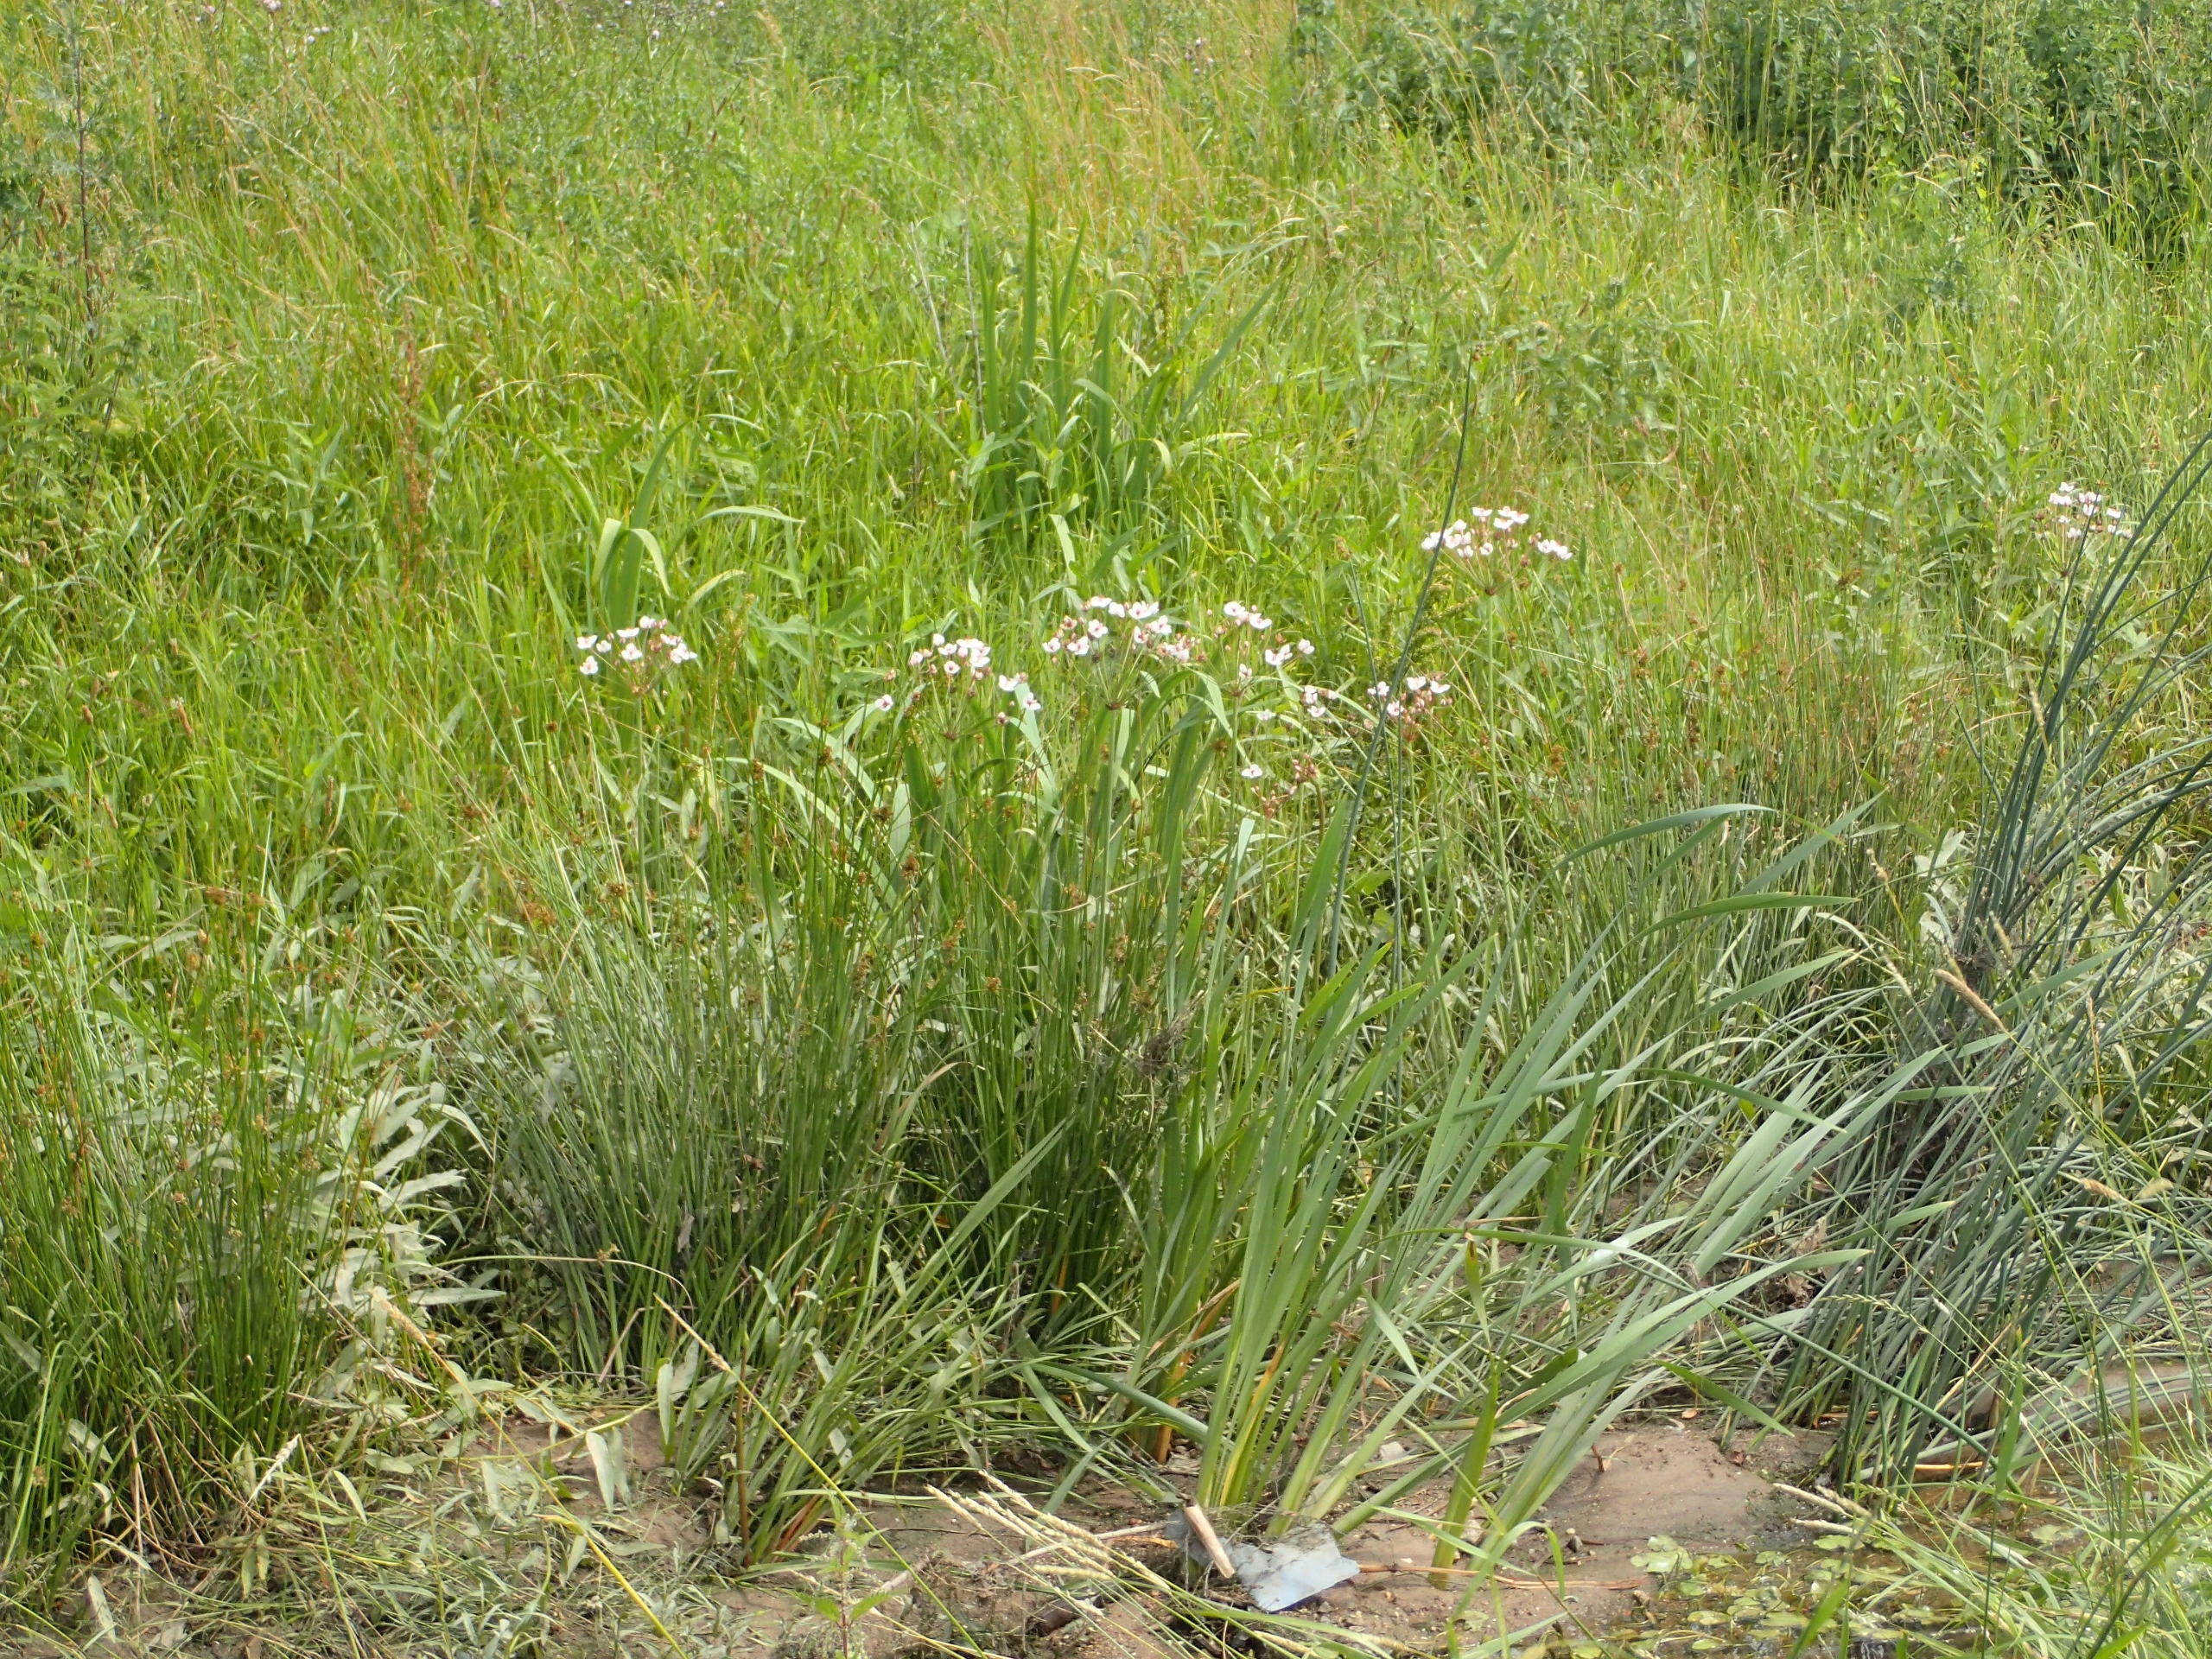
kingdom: Plantae
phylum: Tracheophyta
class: Liliopsida
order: Alismatales
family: Butomaceae
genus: Butomus
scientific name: Butomus umbellatus
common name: Brudelys
